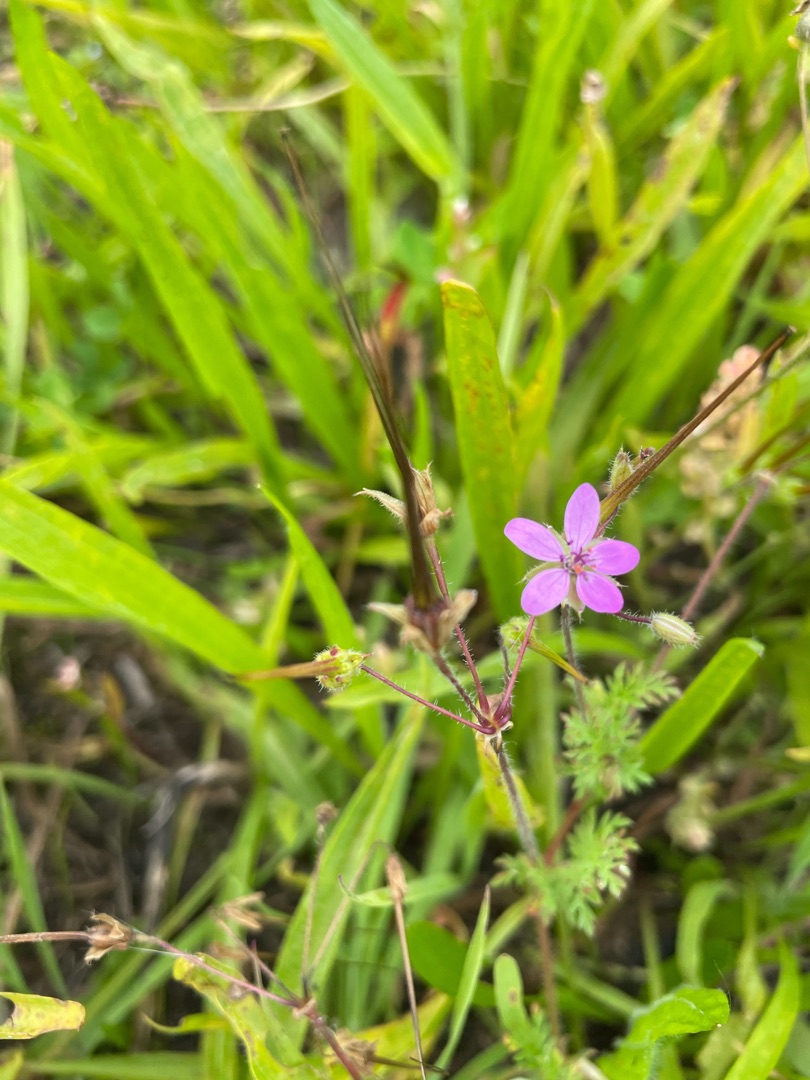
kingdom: Plantae
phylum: Tracheophyta
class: Magnoliopsida
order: Geraniales
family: Geraniaceae
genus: Erodium
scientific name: Erodium cicutarium
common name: Hejrenæb
